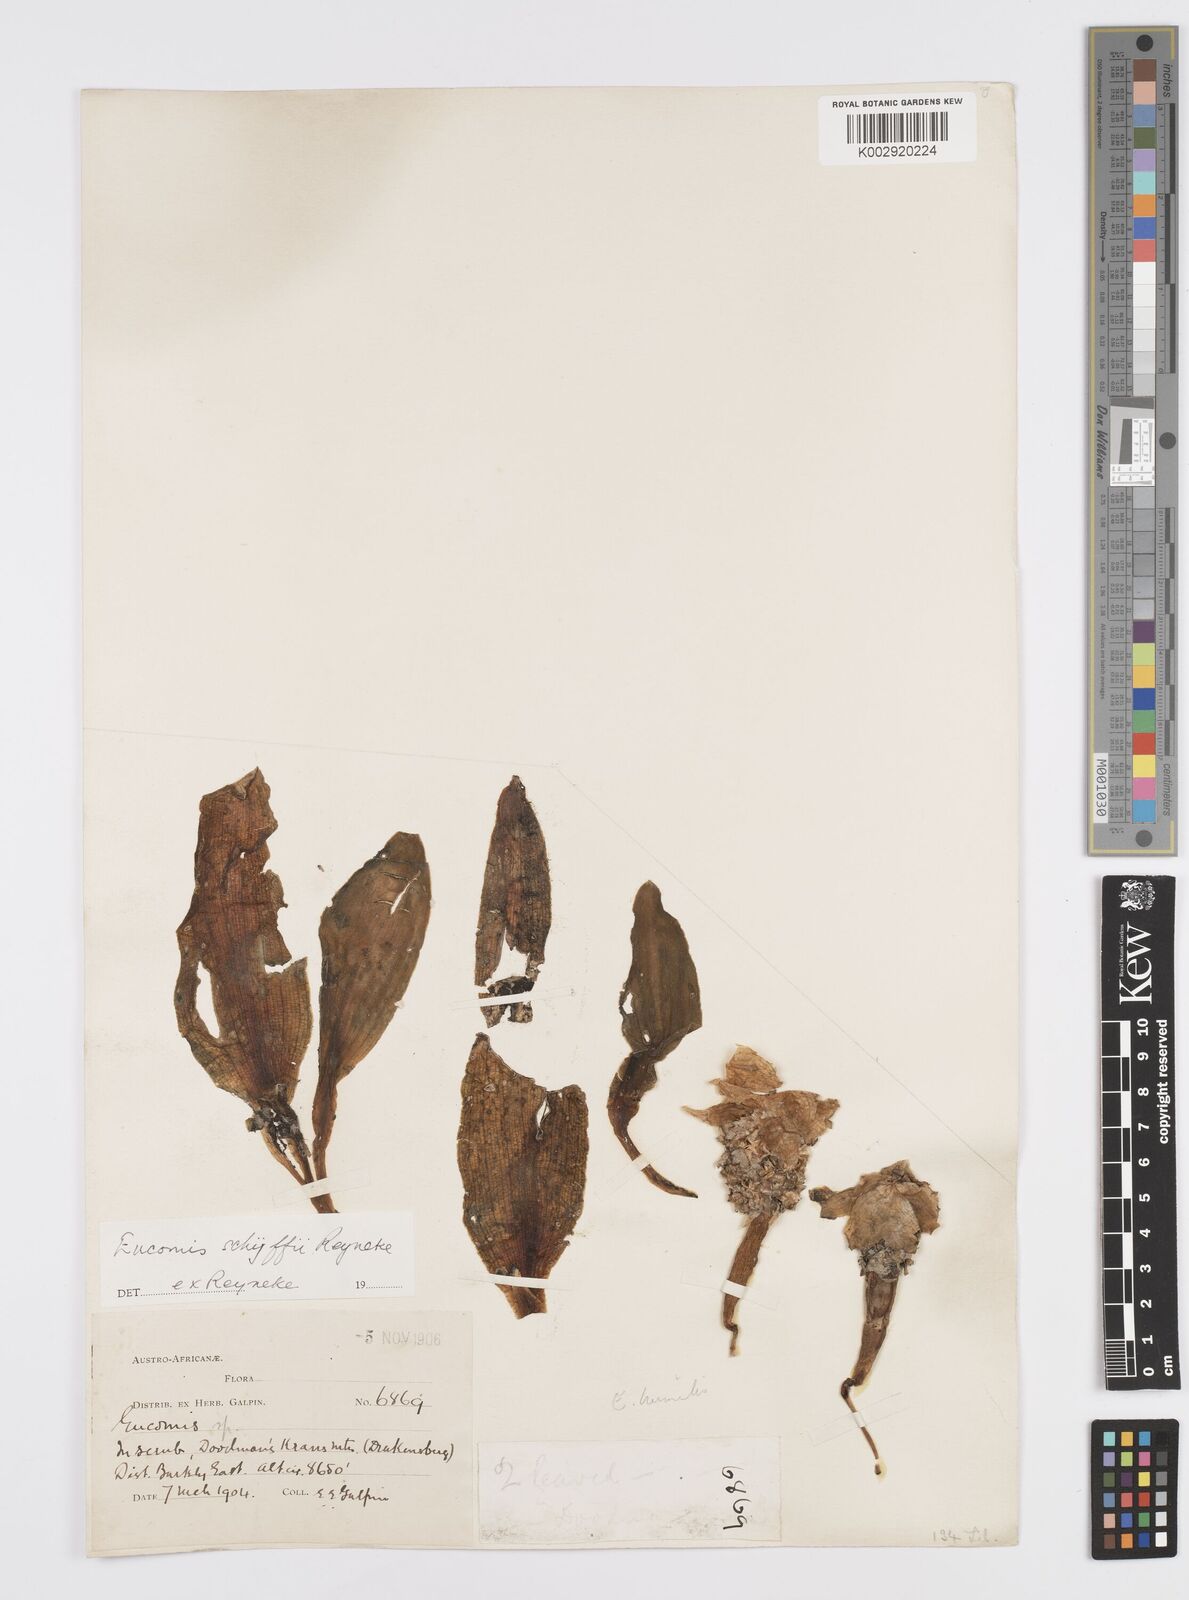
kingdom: Plantae
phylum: Tracheophyta
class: Liliopsida
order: Asparagales
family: Asparagaceae
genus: Eucomis
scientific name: Eucomis schijffii
